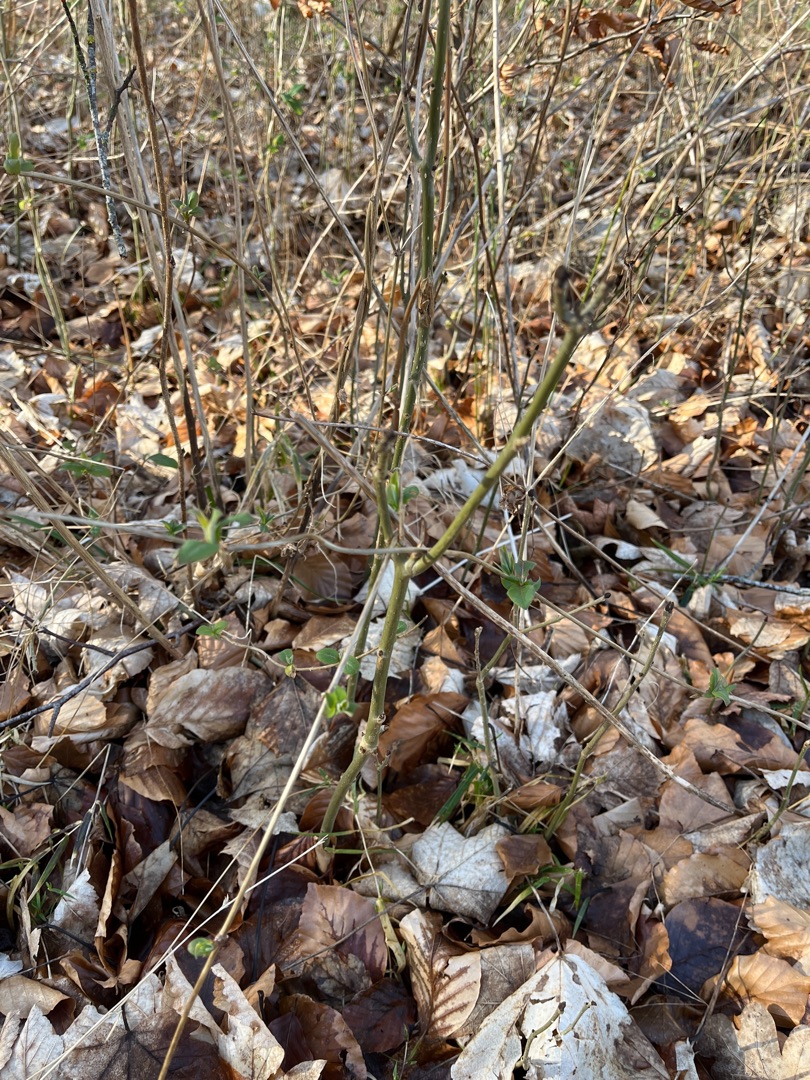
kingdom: Plantae
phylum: Tracheophyta
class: Magnoliopsida
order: Dipsacales
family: Caprifoliaceae
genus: Lonicera
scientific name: Lonicera periclymenum
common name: Almindelig gedeblad
